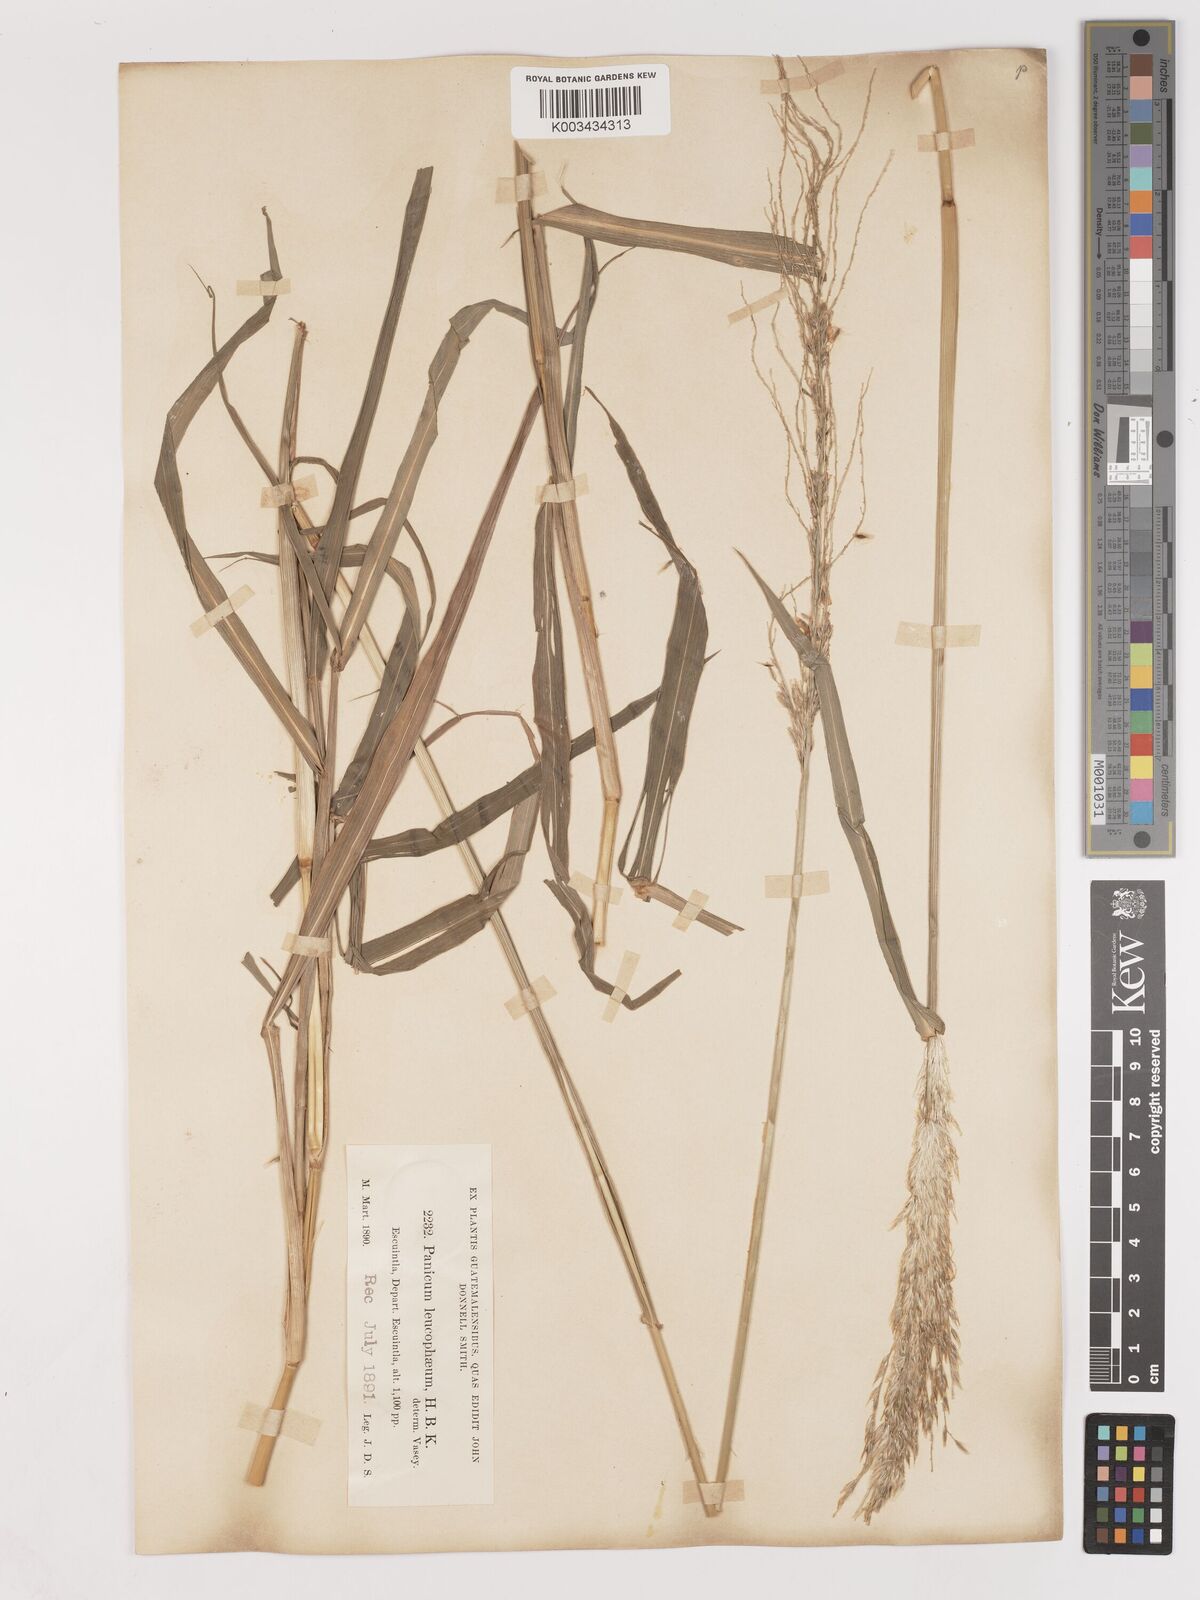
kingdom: Plantae
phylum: Tracheophyta
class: Liliopsida
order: Poales
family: Poaceae
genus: Digitaria
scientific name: Digitaria insularis
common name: Sourgrass
